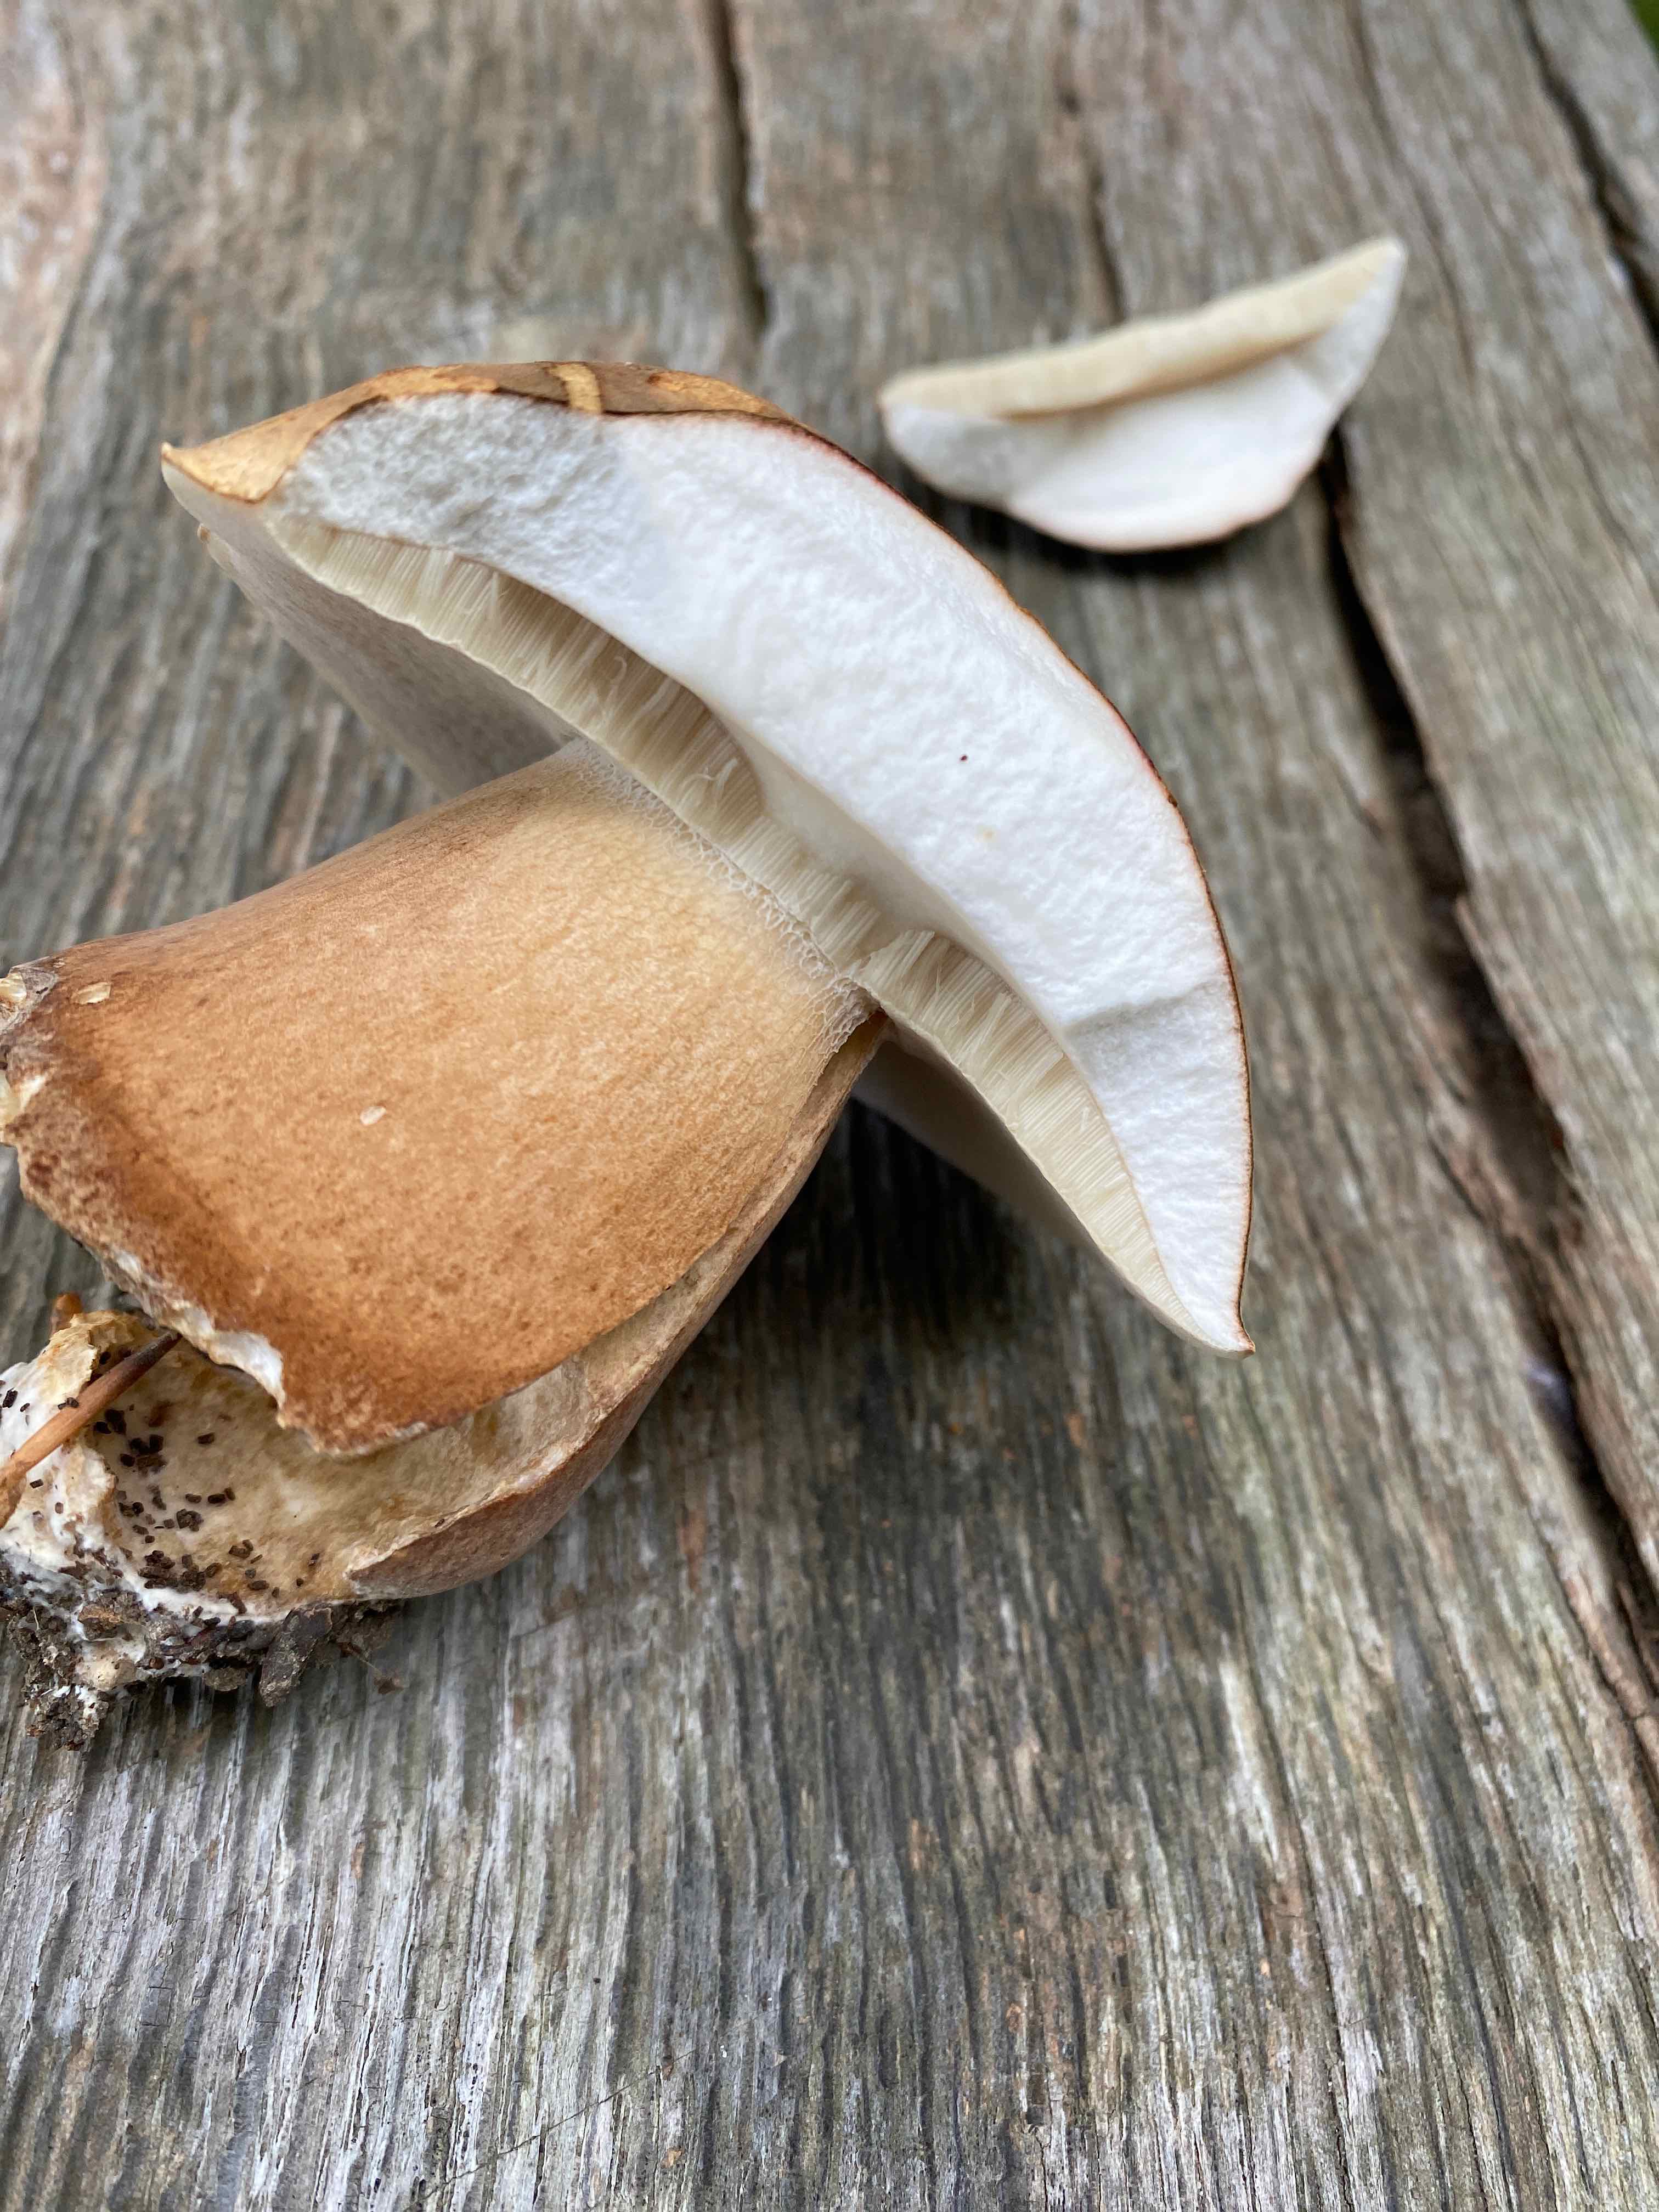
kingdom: Fungi
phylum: Basidiomycota
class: Agaricomycetes
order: Boletales
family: Boletaceae
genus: Boletus
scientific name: Boletus reticulatus
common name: sommer-rørhat
